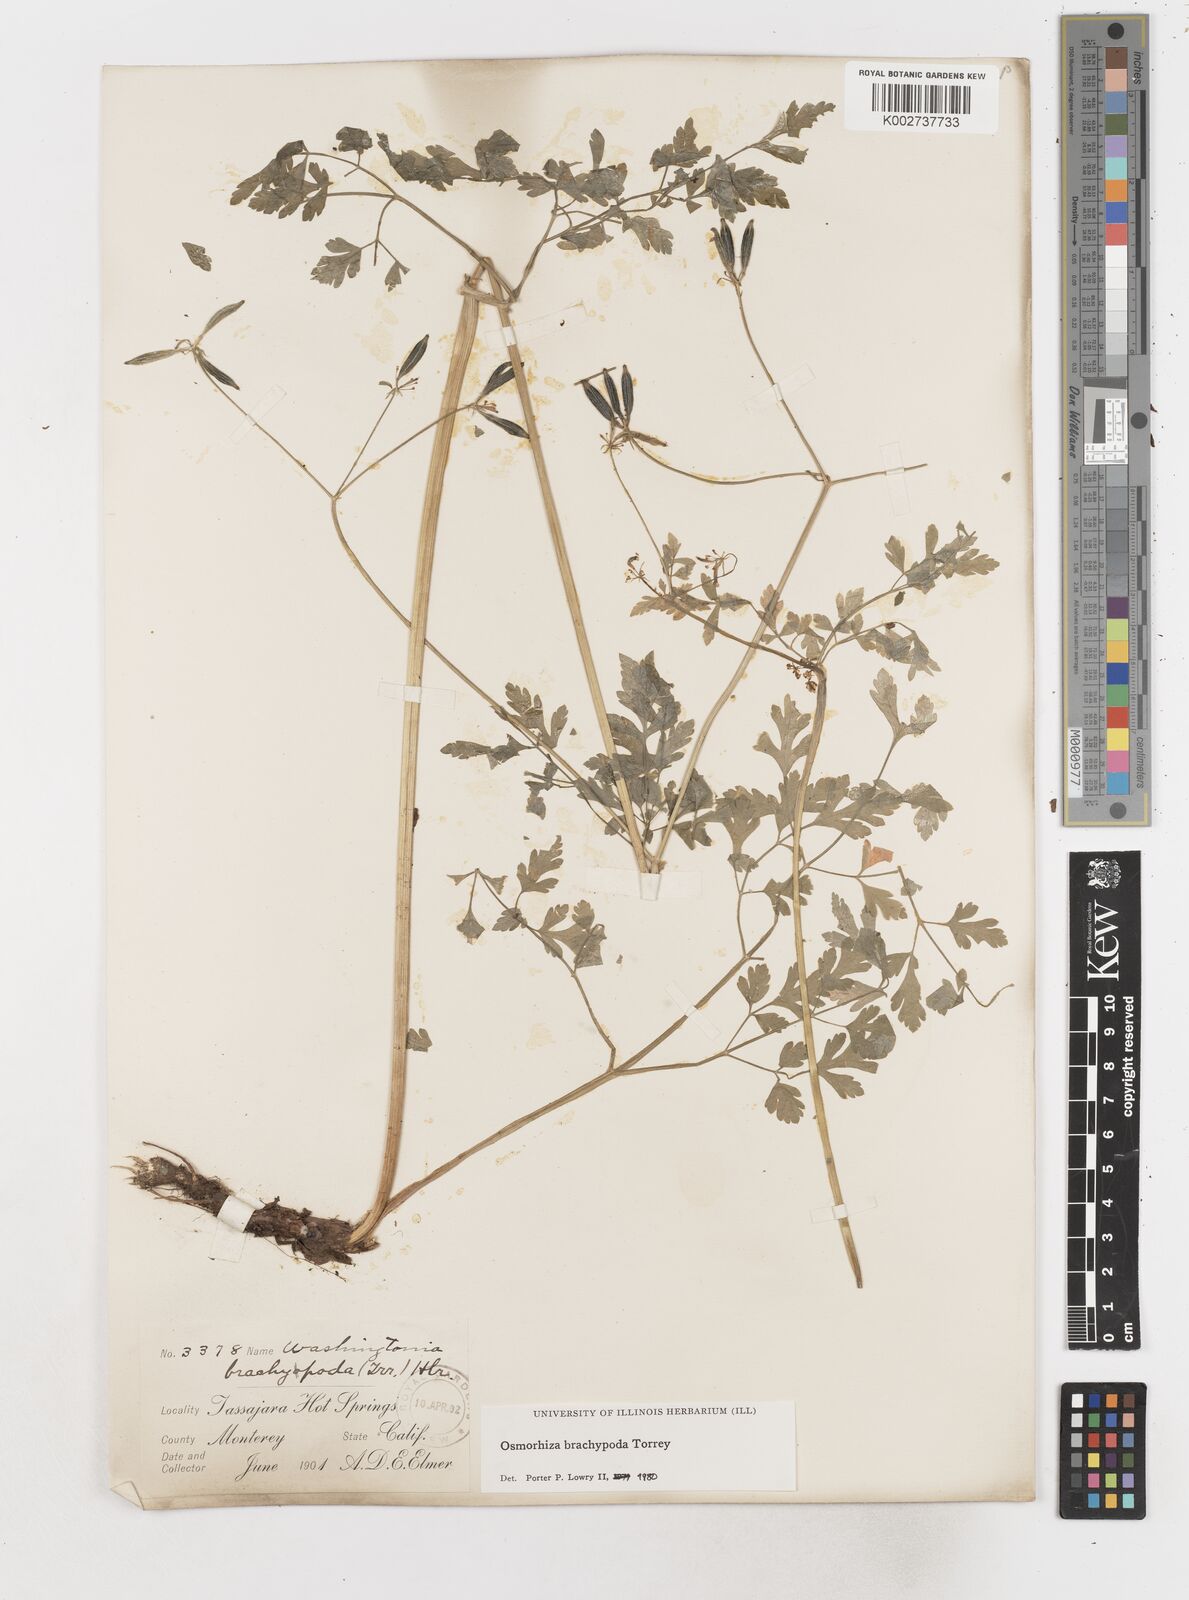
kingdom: Plantae
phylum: Tracheophyta
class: Magnoliopsida
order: Apiales
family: Apiaceae
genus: Osmorhiza
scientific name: Osmorhiza brachypoda
